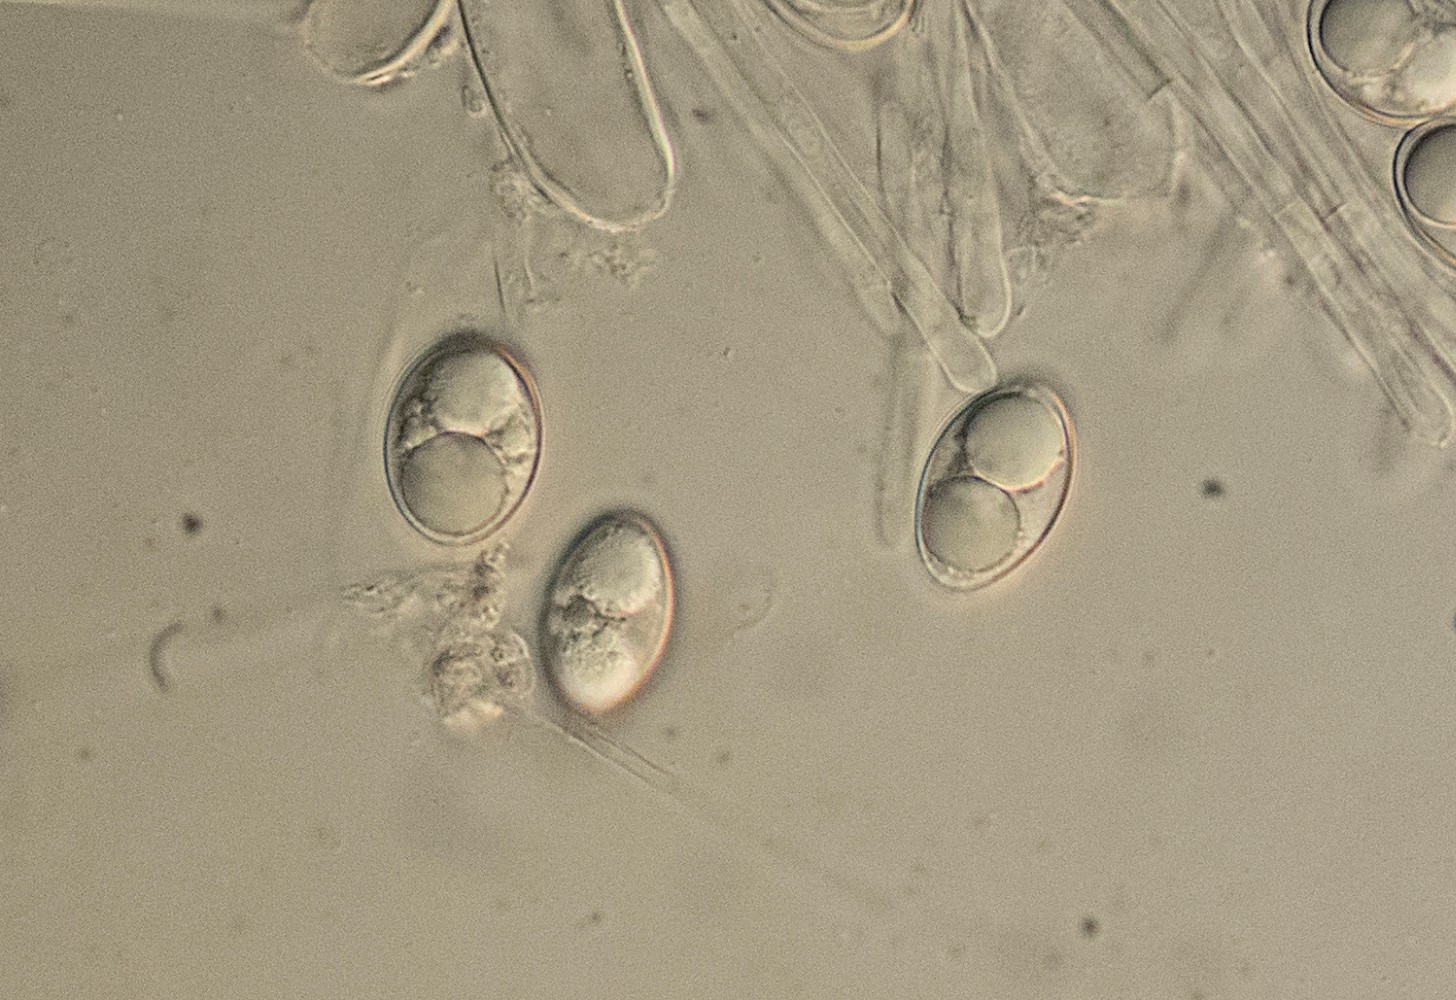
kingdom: Fungi
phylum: Ascomycota
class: Pezizomycetes
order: Pezizales
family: Pyronemataceae
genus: Tarzetta
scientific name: Tarzetta cupularis
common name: gulbrun pokalbæger
